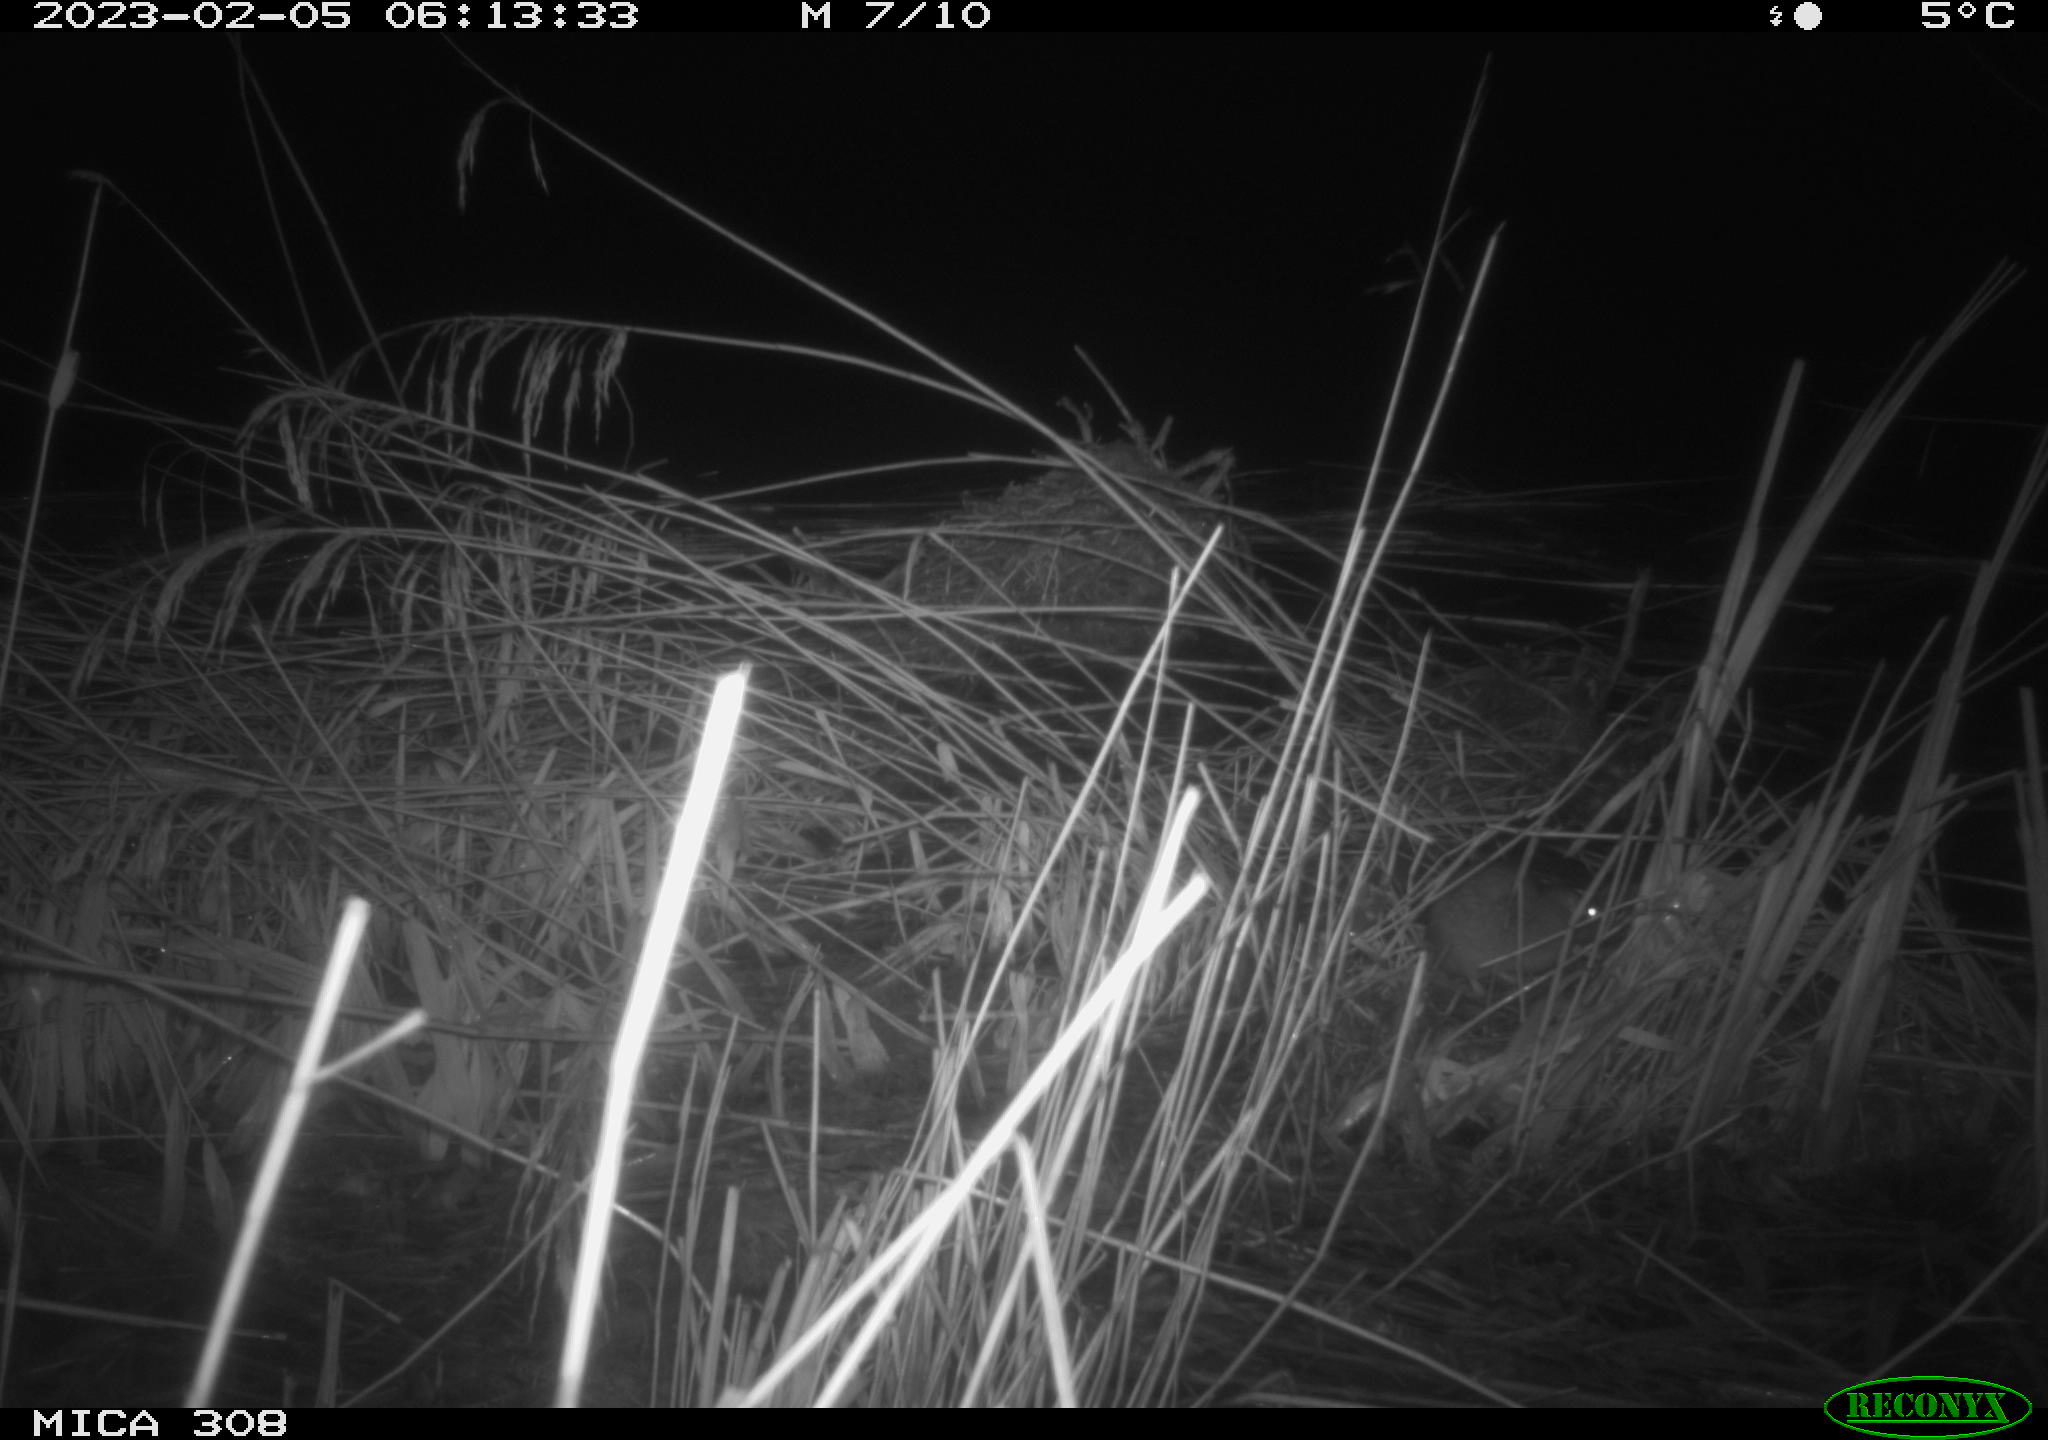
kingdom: Animalia
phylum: Chordata
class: Mammalia
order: Rodentia
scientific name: Rodentia
